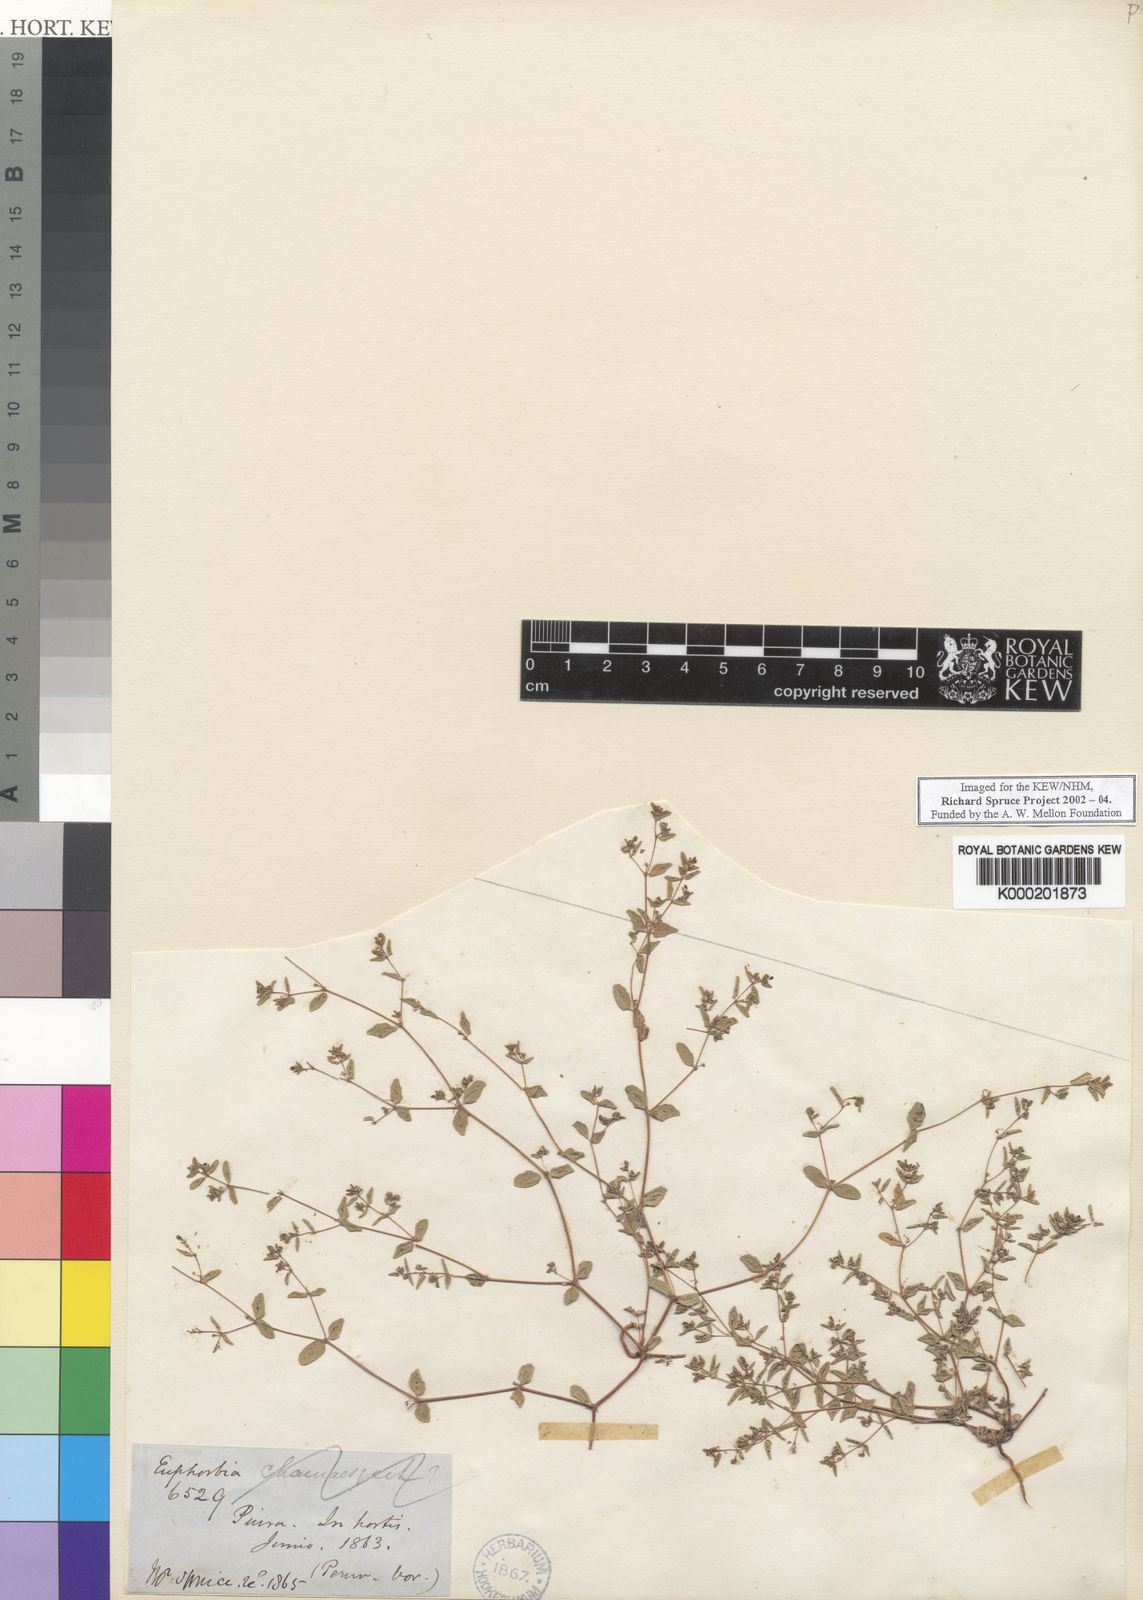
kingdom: Plantae
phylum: Tracheophyta
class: Magnoliopsida
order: Malpighiales
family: Euphorbiaceae
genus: Euphorbia
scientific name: Euphorbia
